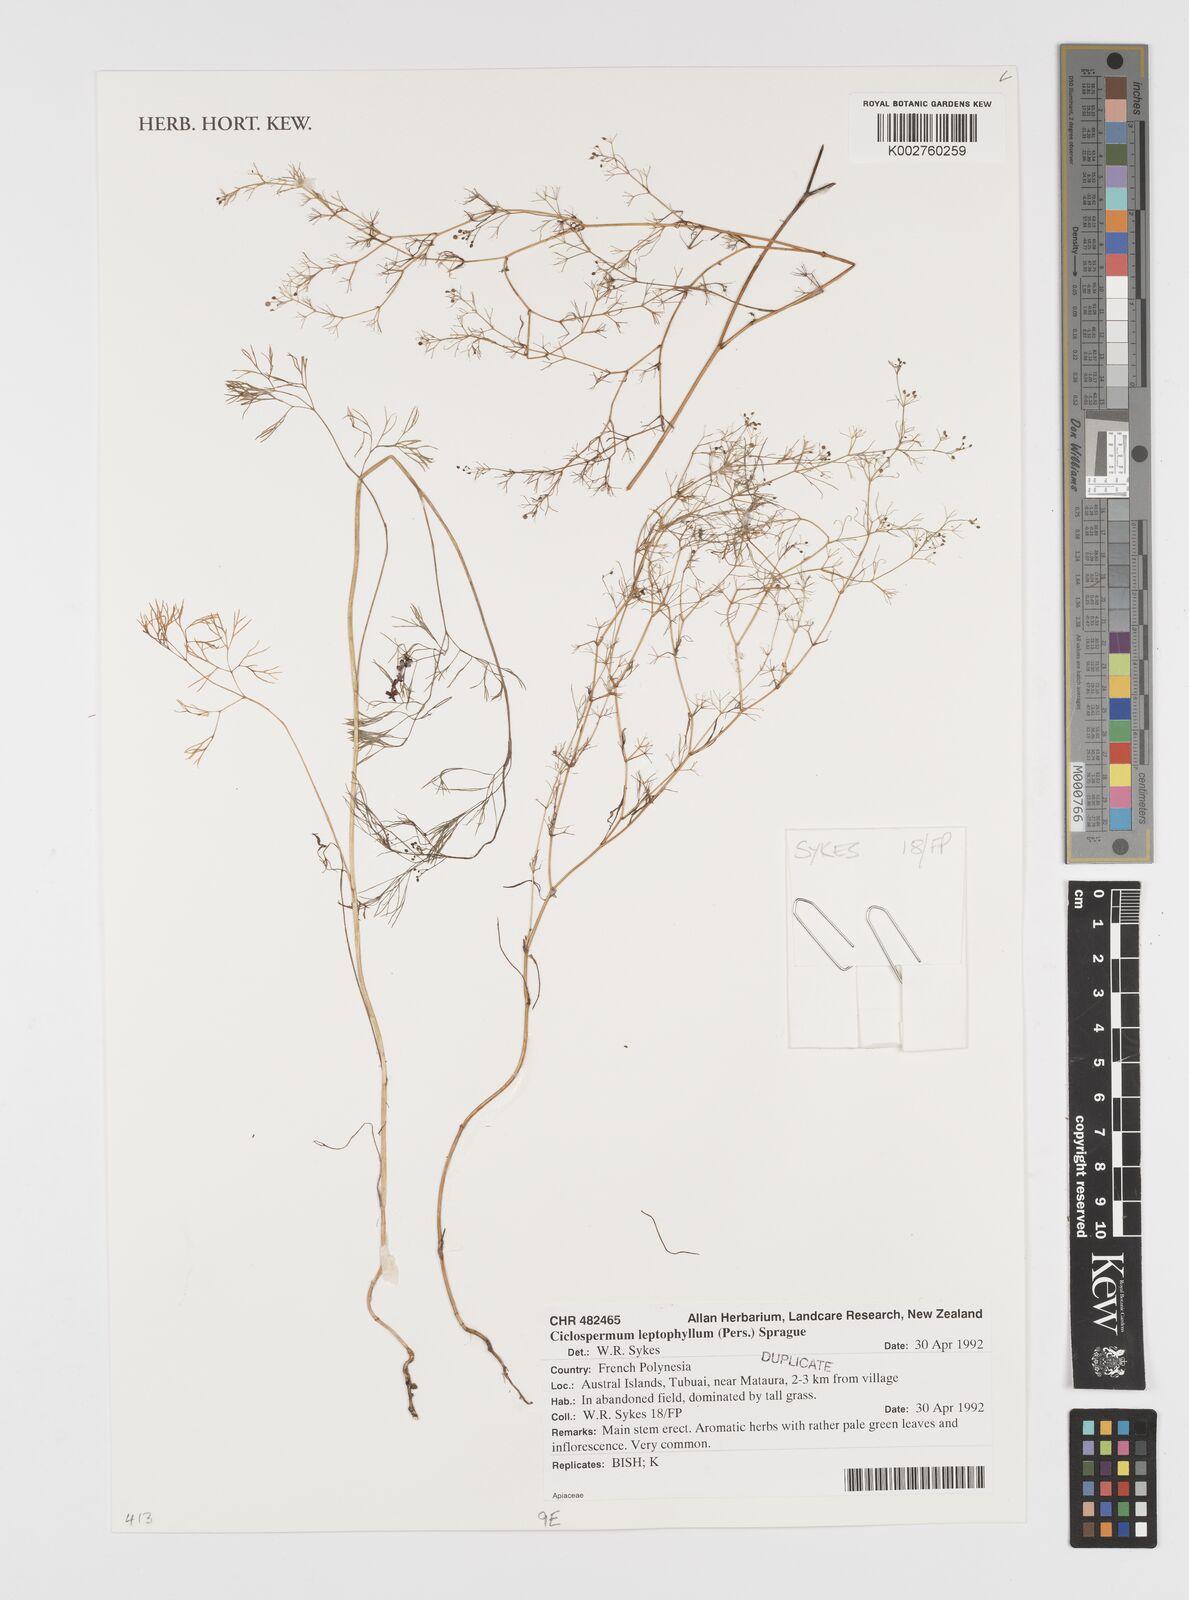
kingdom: Plantae
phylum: Tracheophyta
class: Magnoliopsida
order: Apiales
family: Apiaceae
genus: Cyclospermum
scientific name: Cyclospermum leptophyllum
